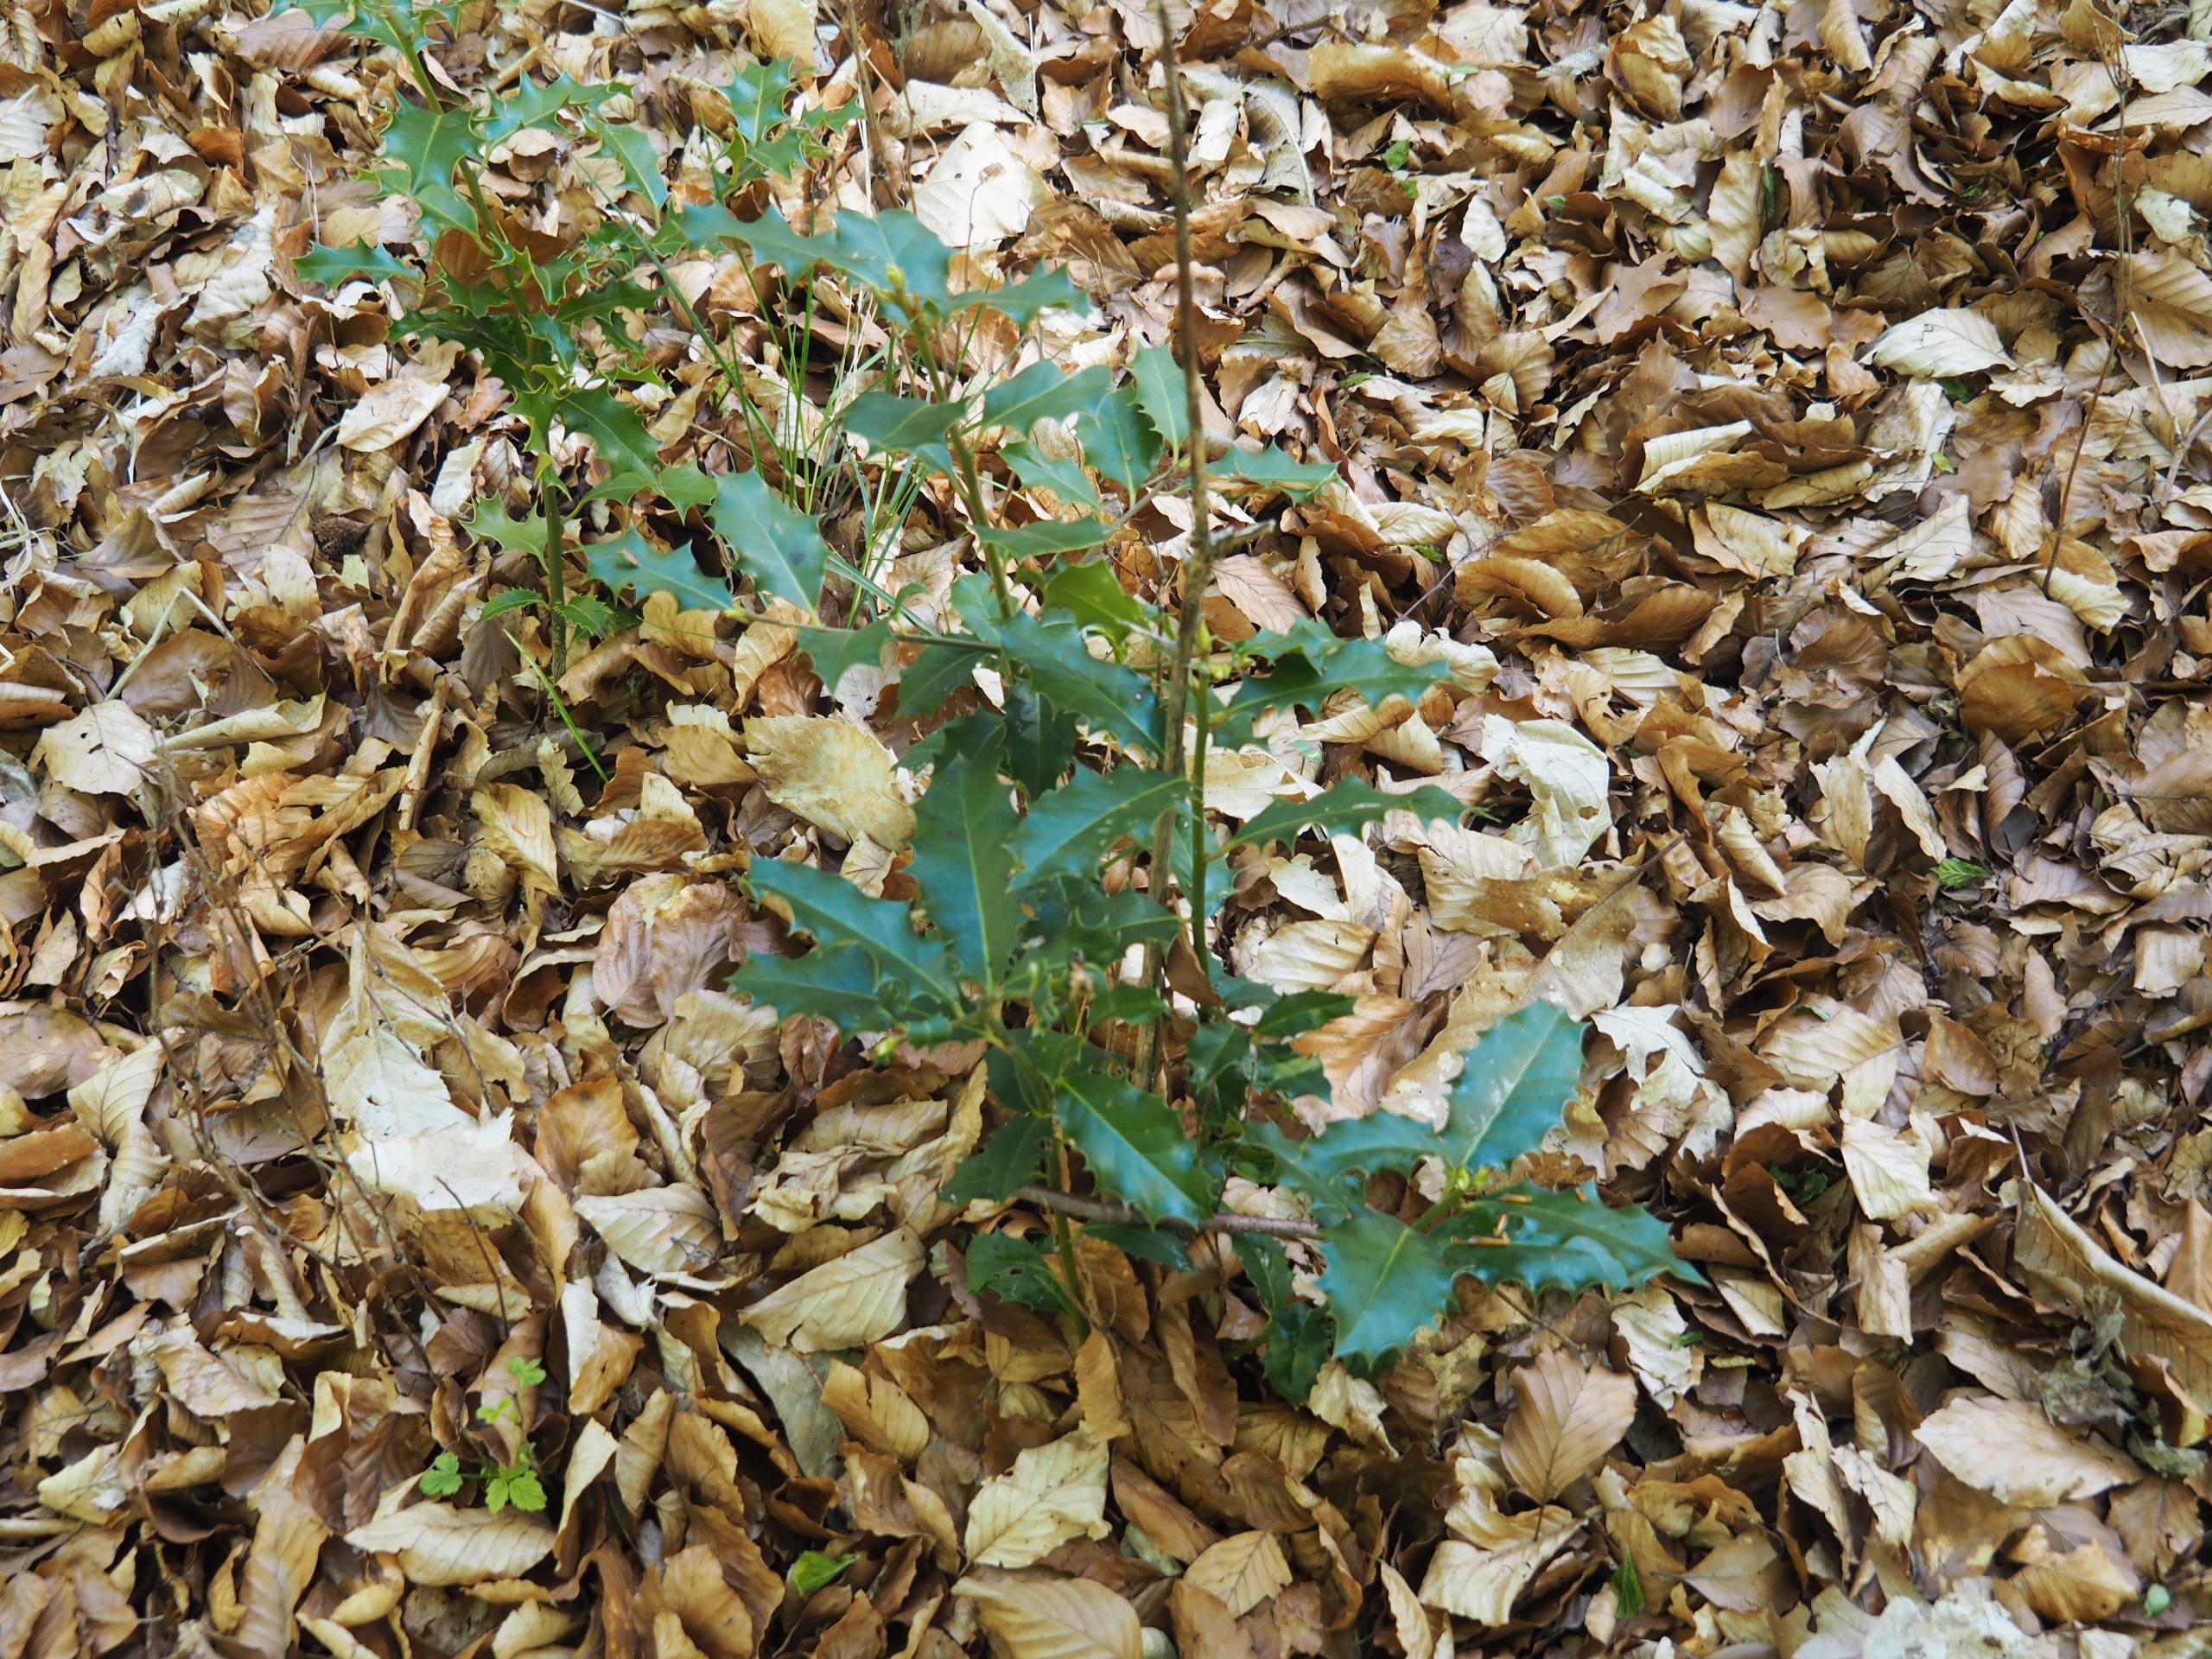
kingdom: Plantae
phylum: Tracheophyta
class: Magnoliopsida
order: Aquifoliales
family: Aquifoliaceae
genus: Ilex
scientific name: Ilex aquifolium
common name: Kristtorn
